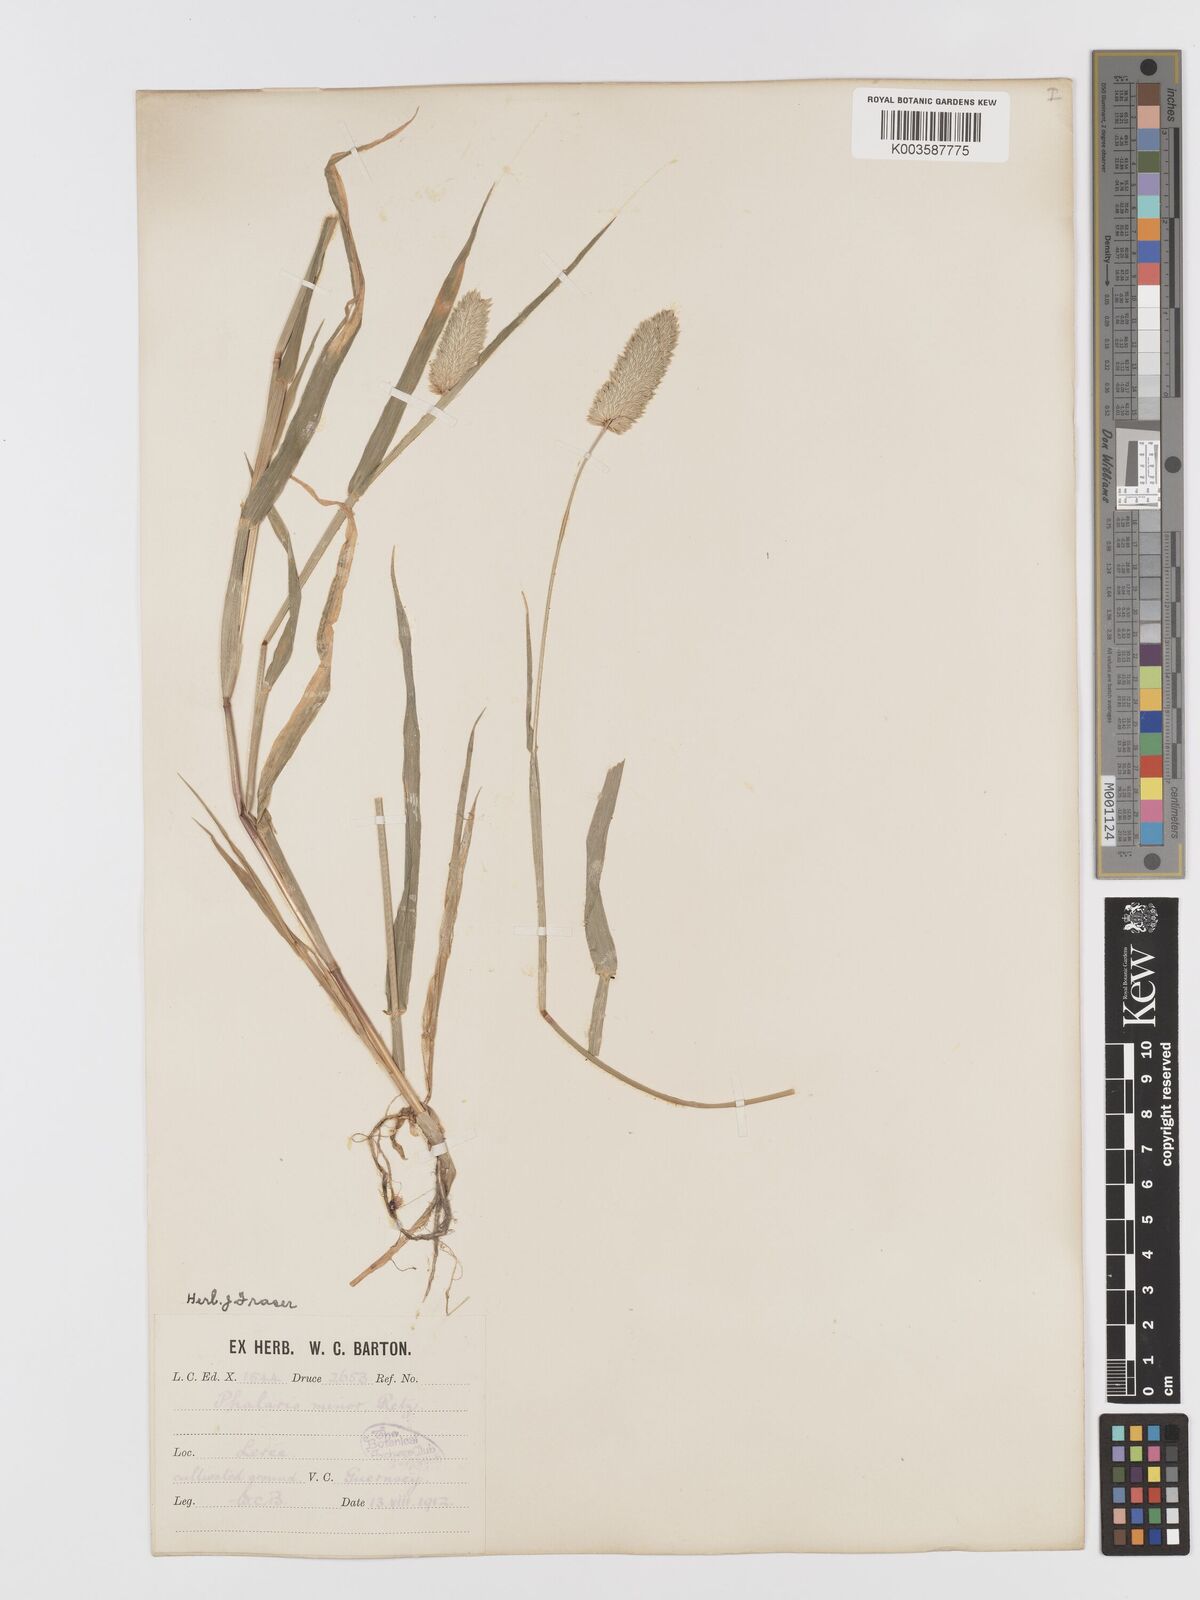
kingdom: Plantae
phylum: Tracheophyta
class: Liliopsida
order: Poales
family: Poaceae
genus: Phalaris
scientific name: Phalaris minor
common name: Littleseed canarygrass
